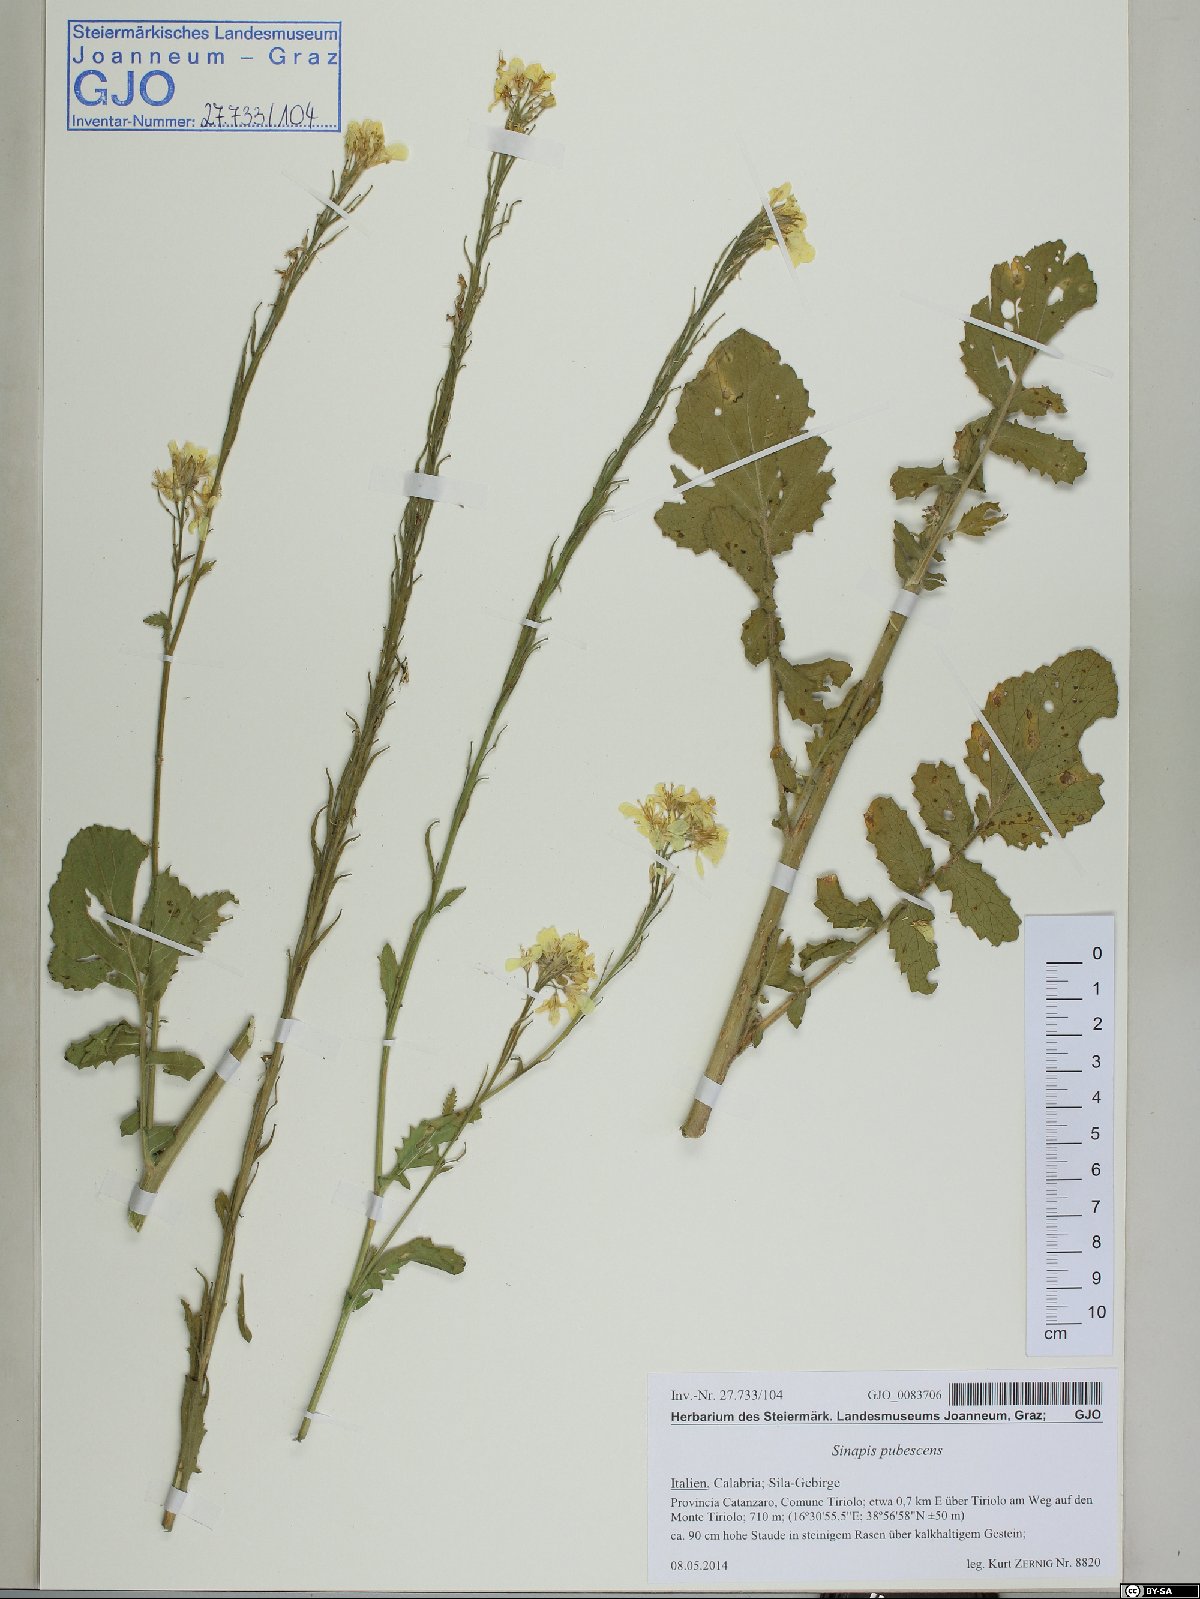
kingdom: Plantae
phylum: Tracheophyta
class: Magnoliopsida
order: Brassicales
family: Brassicaceae
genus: Sinapis
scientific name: Sinapis pubescens
